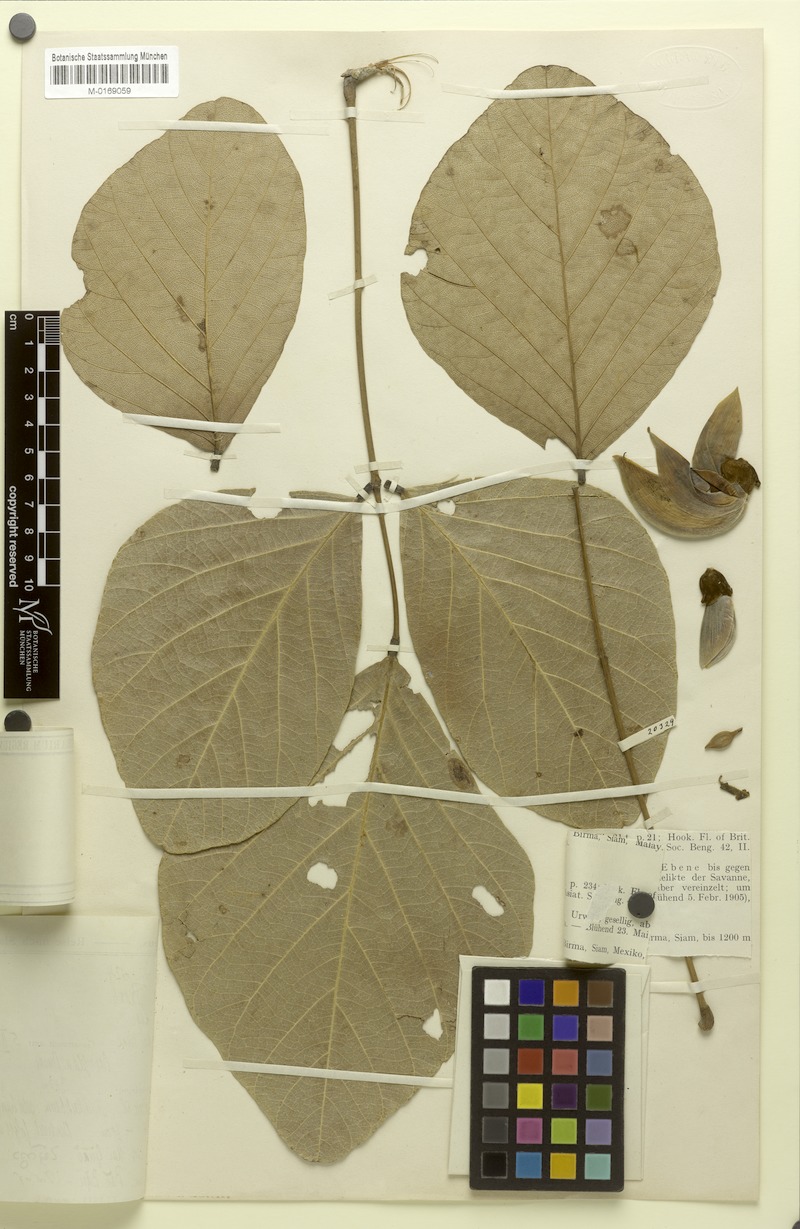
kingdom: Plantae
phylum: Tracheophyta
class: Magnoliopsida
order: Fabales
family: Fabaceae
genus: Butea
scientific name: Butea monosperma
